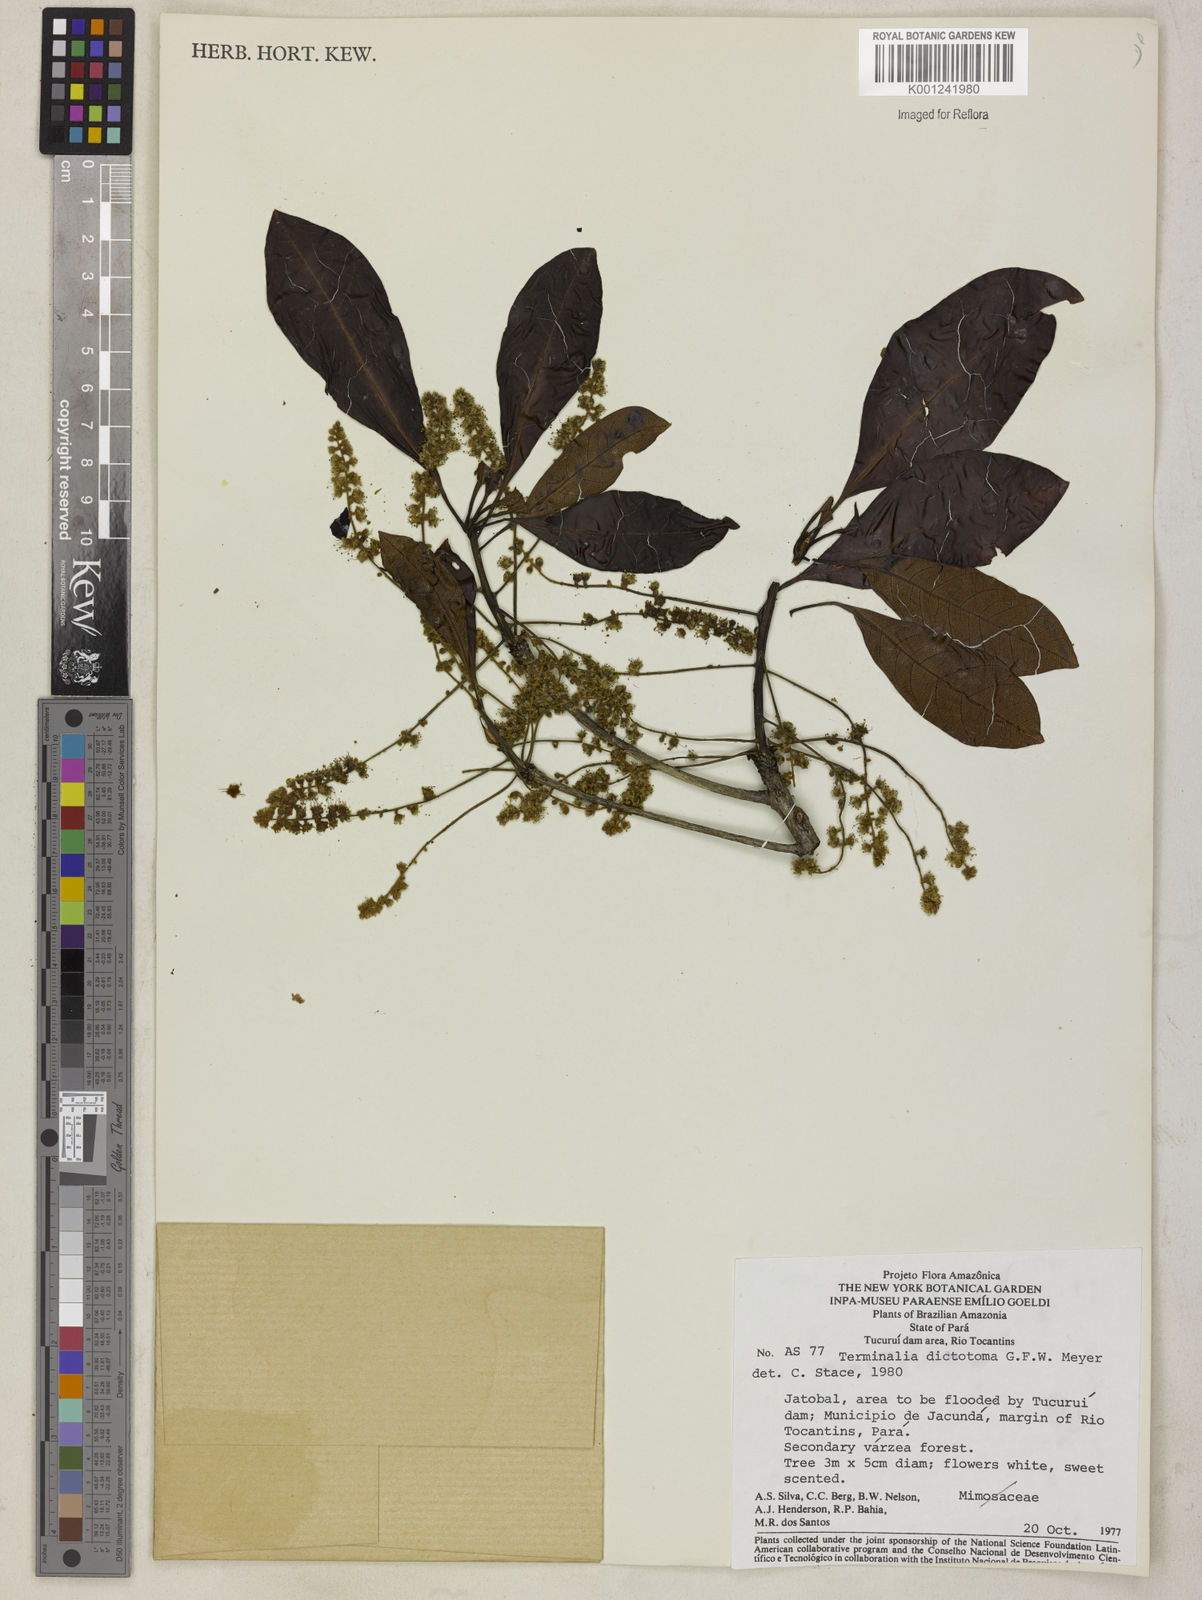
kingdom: Plantae
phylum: Tracheophyta
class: Magnoliopsida
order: Myrtales
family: Combretaceae
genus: Terminalia
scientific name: Terminalia dichotoma
